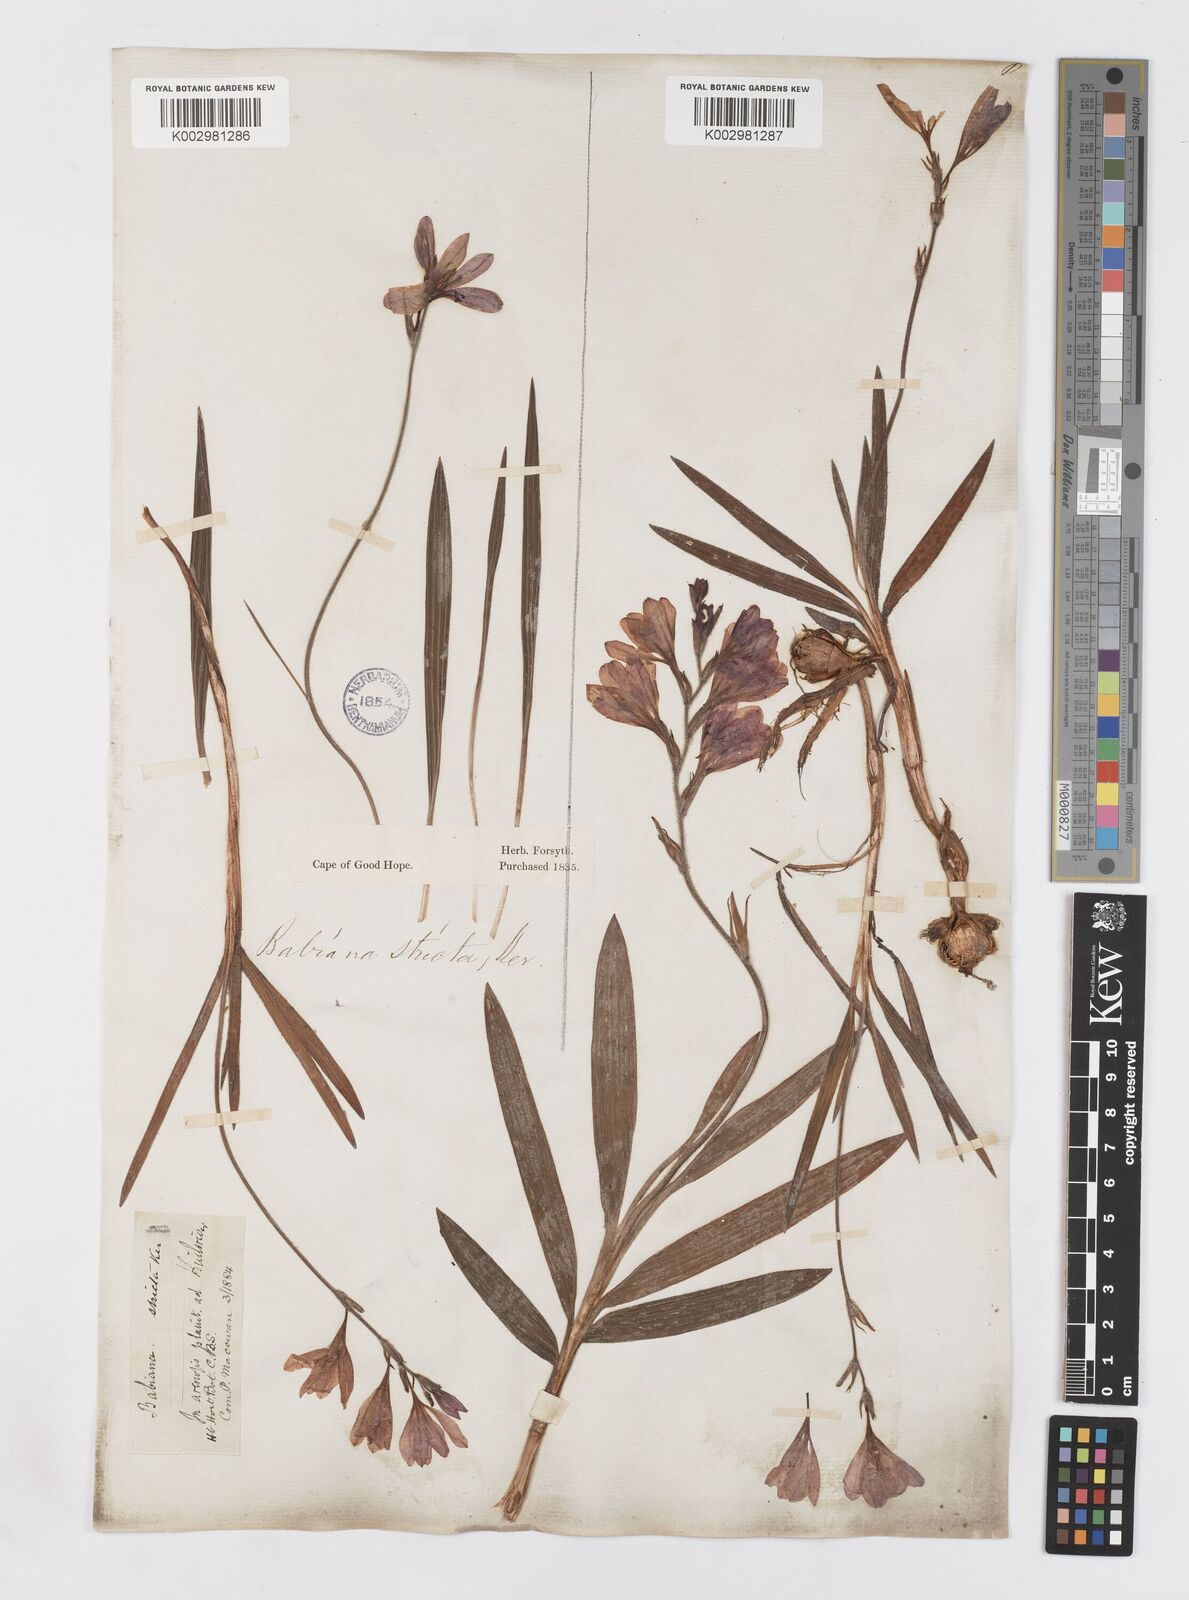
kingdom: Plantae
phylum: Tracheophyta
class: Liliopsida
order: Asparagales
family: Iridaceae
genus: Babiana
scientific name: Babiana nervosa
